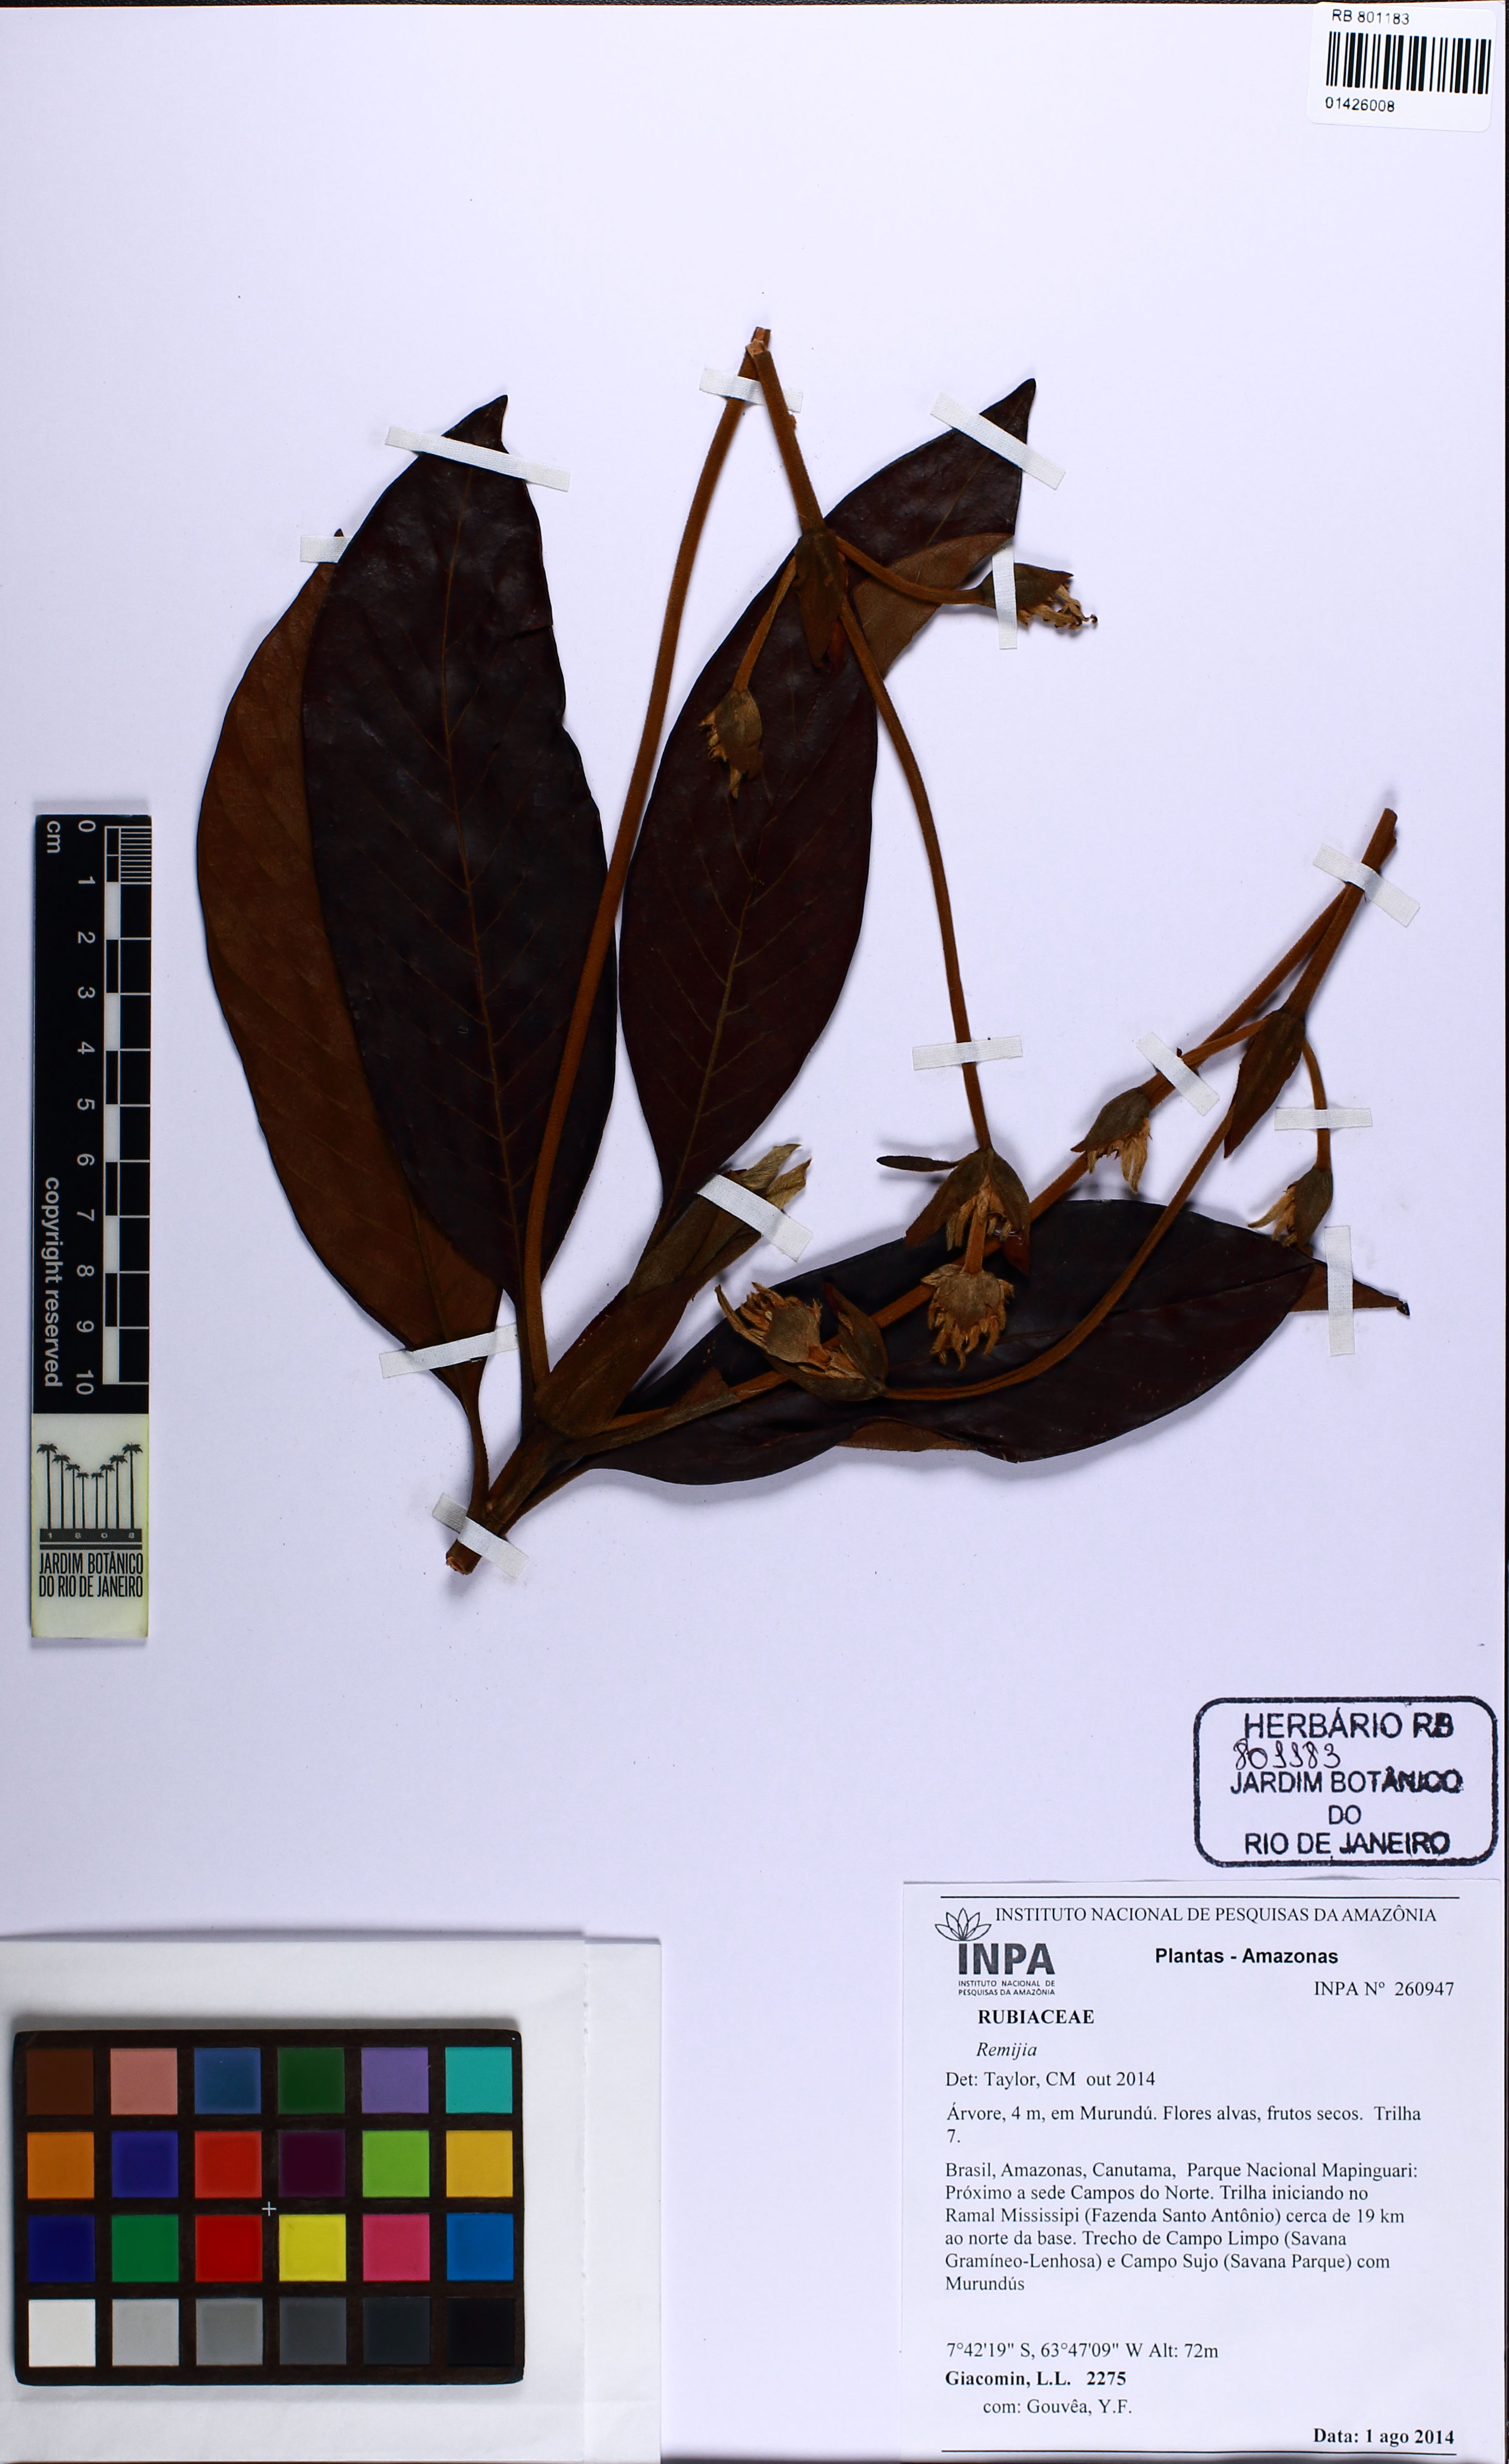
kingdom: Plantae
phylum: Tracheophyta
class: Magnoliopsida
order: Gentianales
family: Rubiaceae
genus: Remijia
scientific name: Remijia
